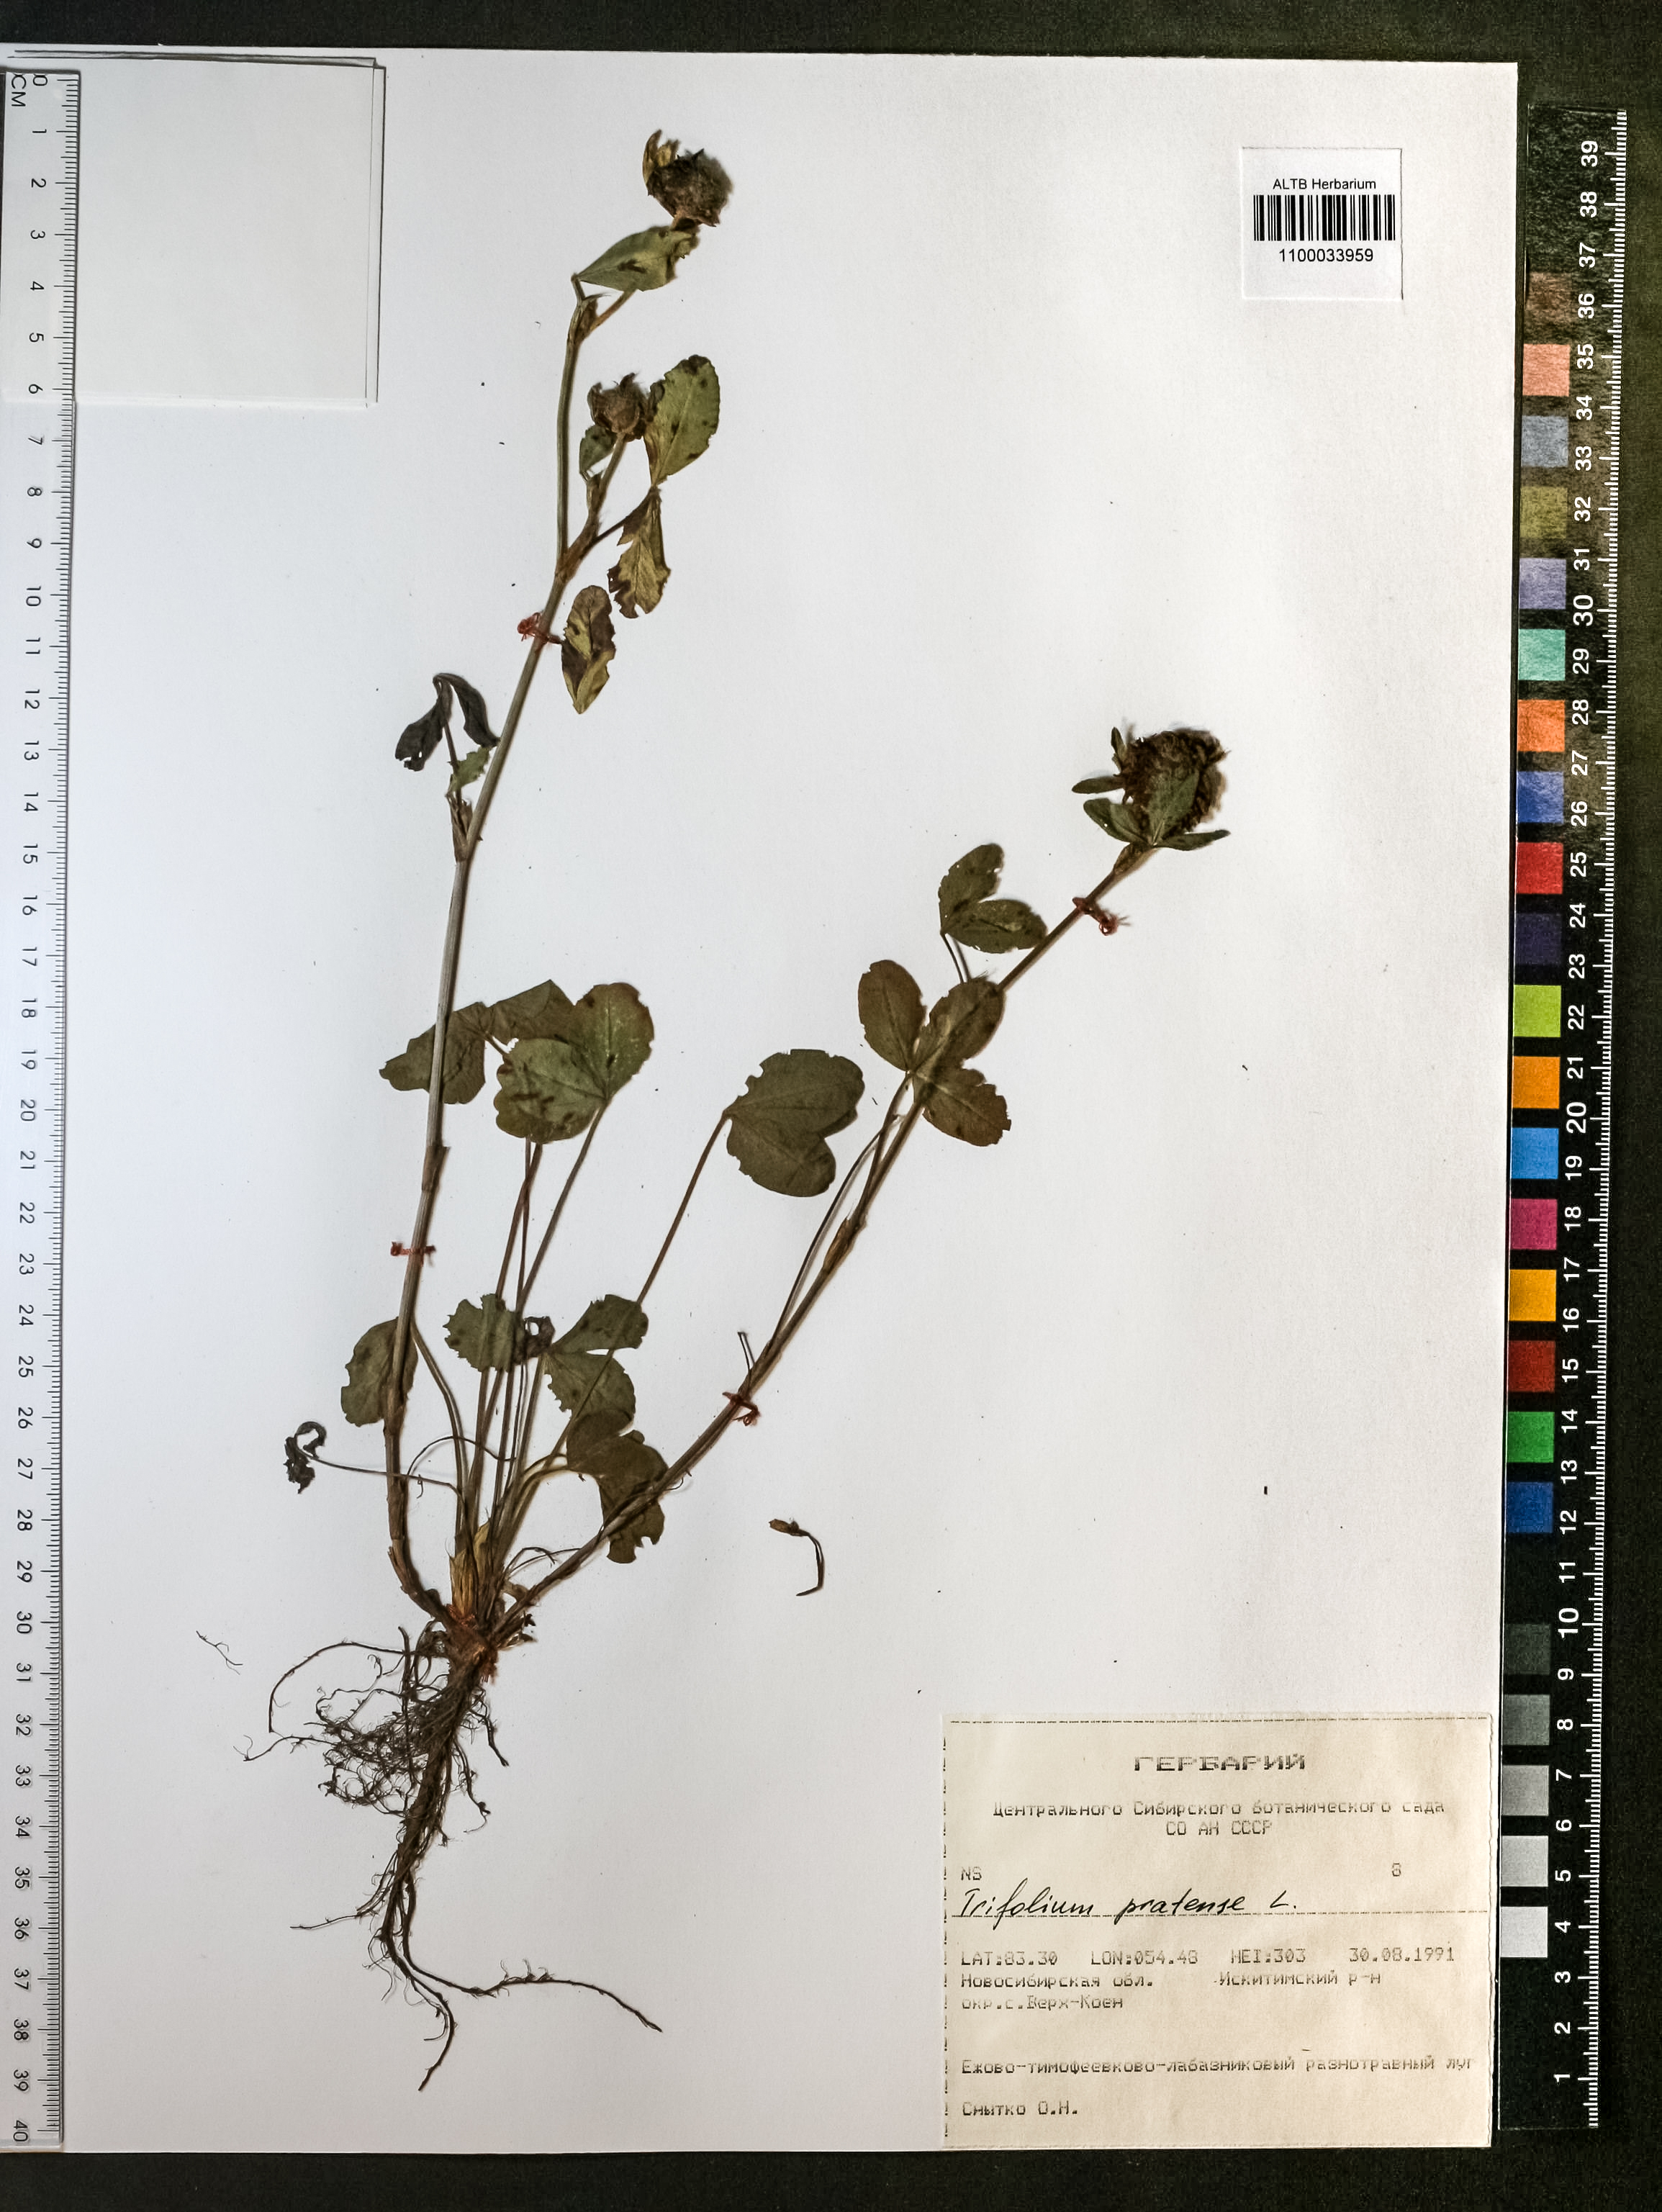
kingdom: Plantae
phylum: Tracheophyta
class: Magnoliopsida
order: Fabales
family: Fabaceae
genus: Trifolium
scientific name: Trifolium pratense
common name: Red clover
